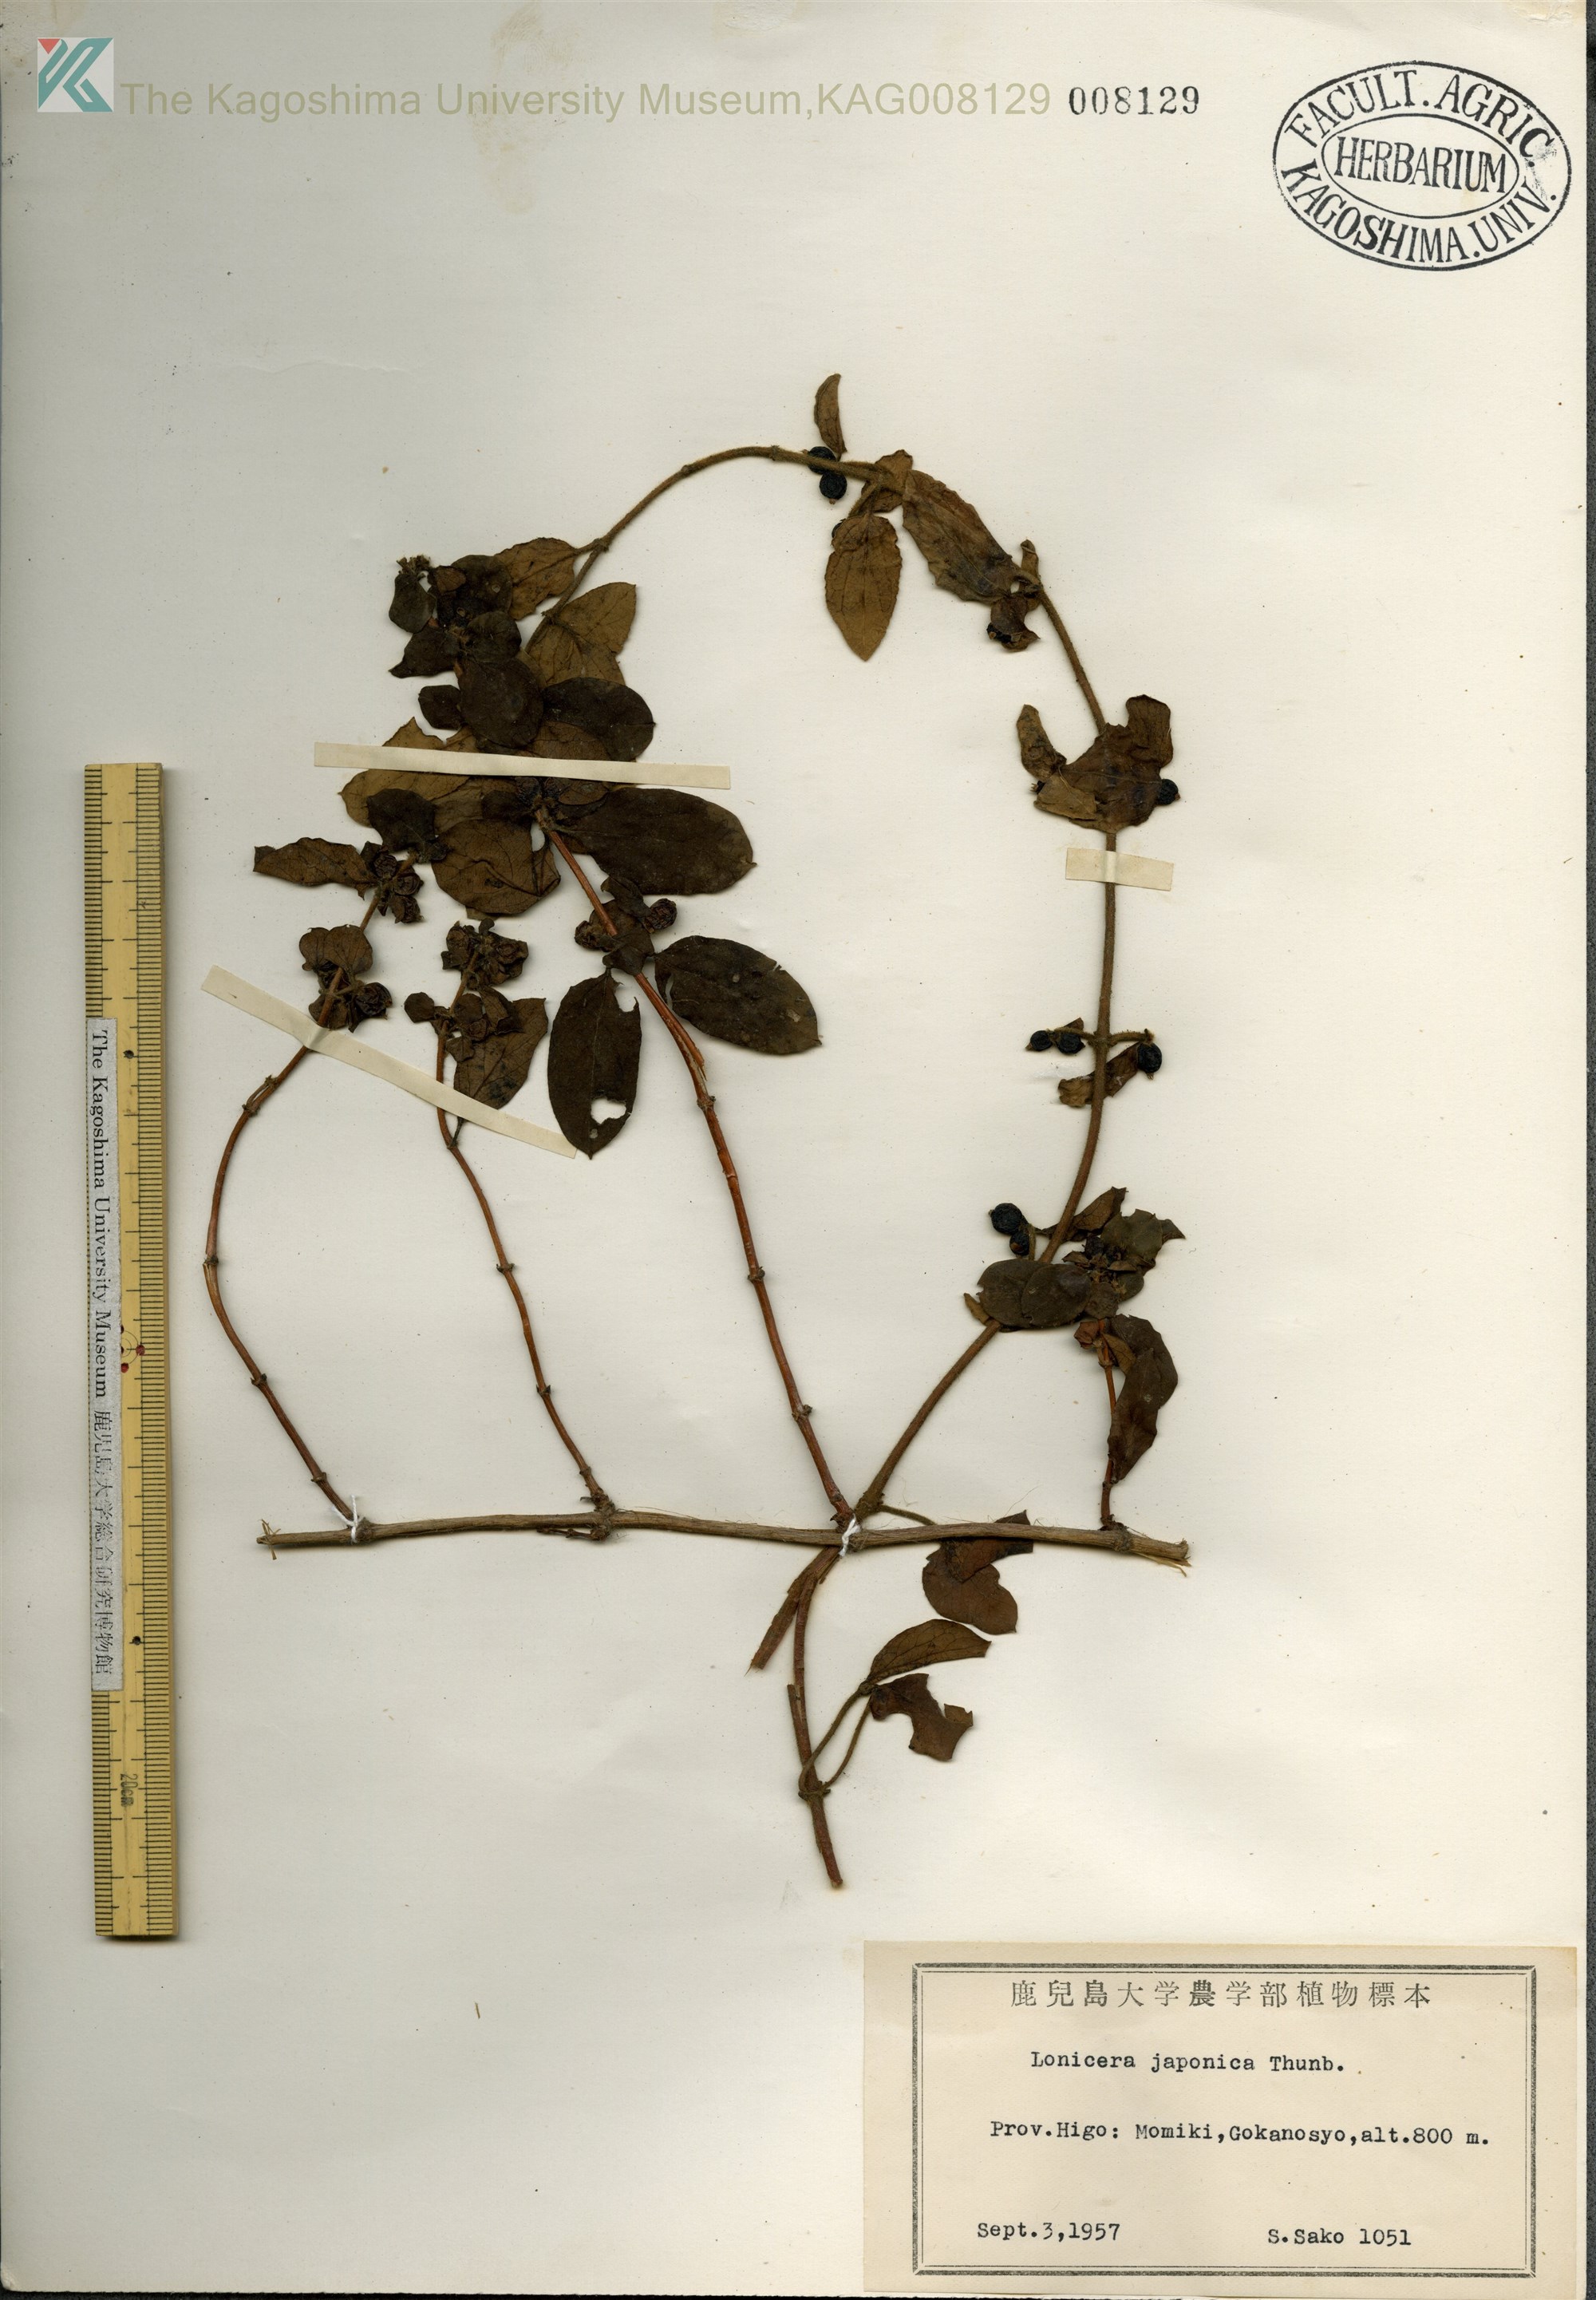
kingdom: Plantae
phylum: Tracheophyta
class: Magnoliopsida
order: Dipsacales
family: Caprifoliaceae
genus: Lonicera
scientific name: Lonicera japonica
